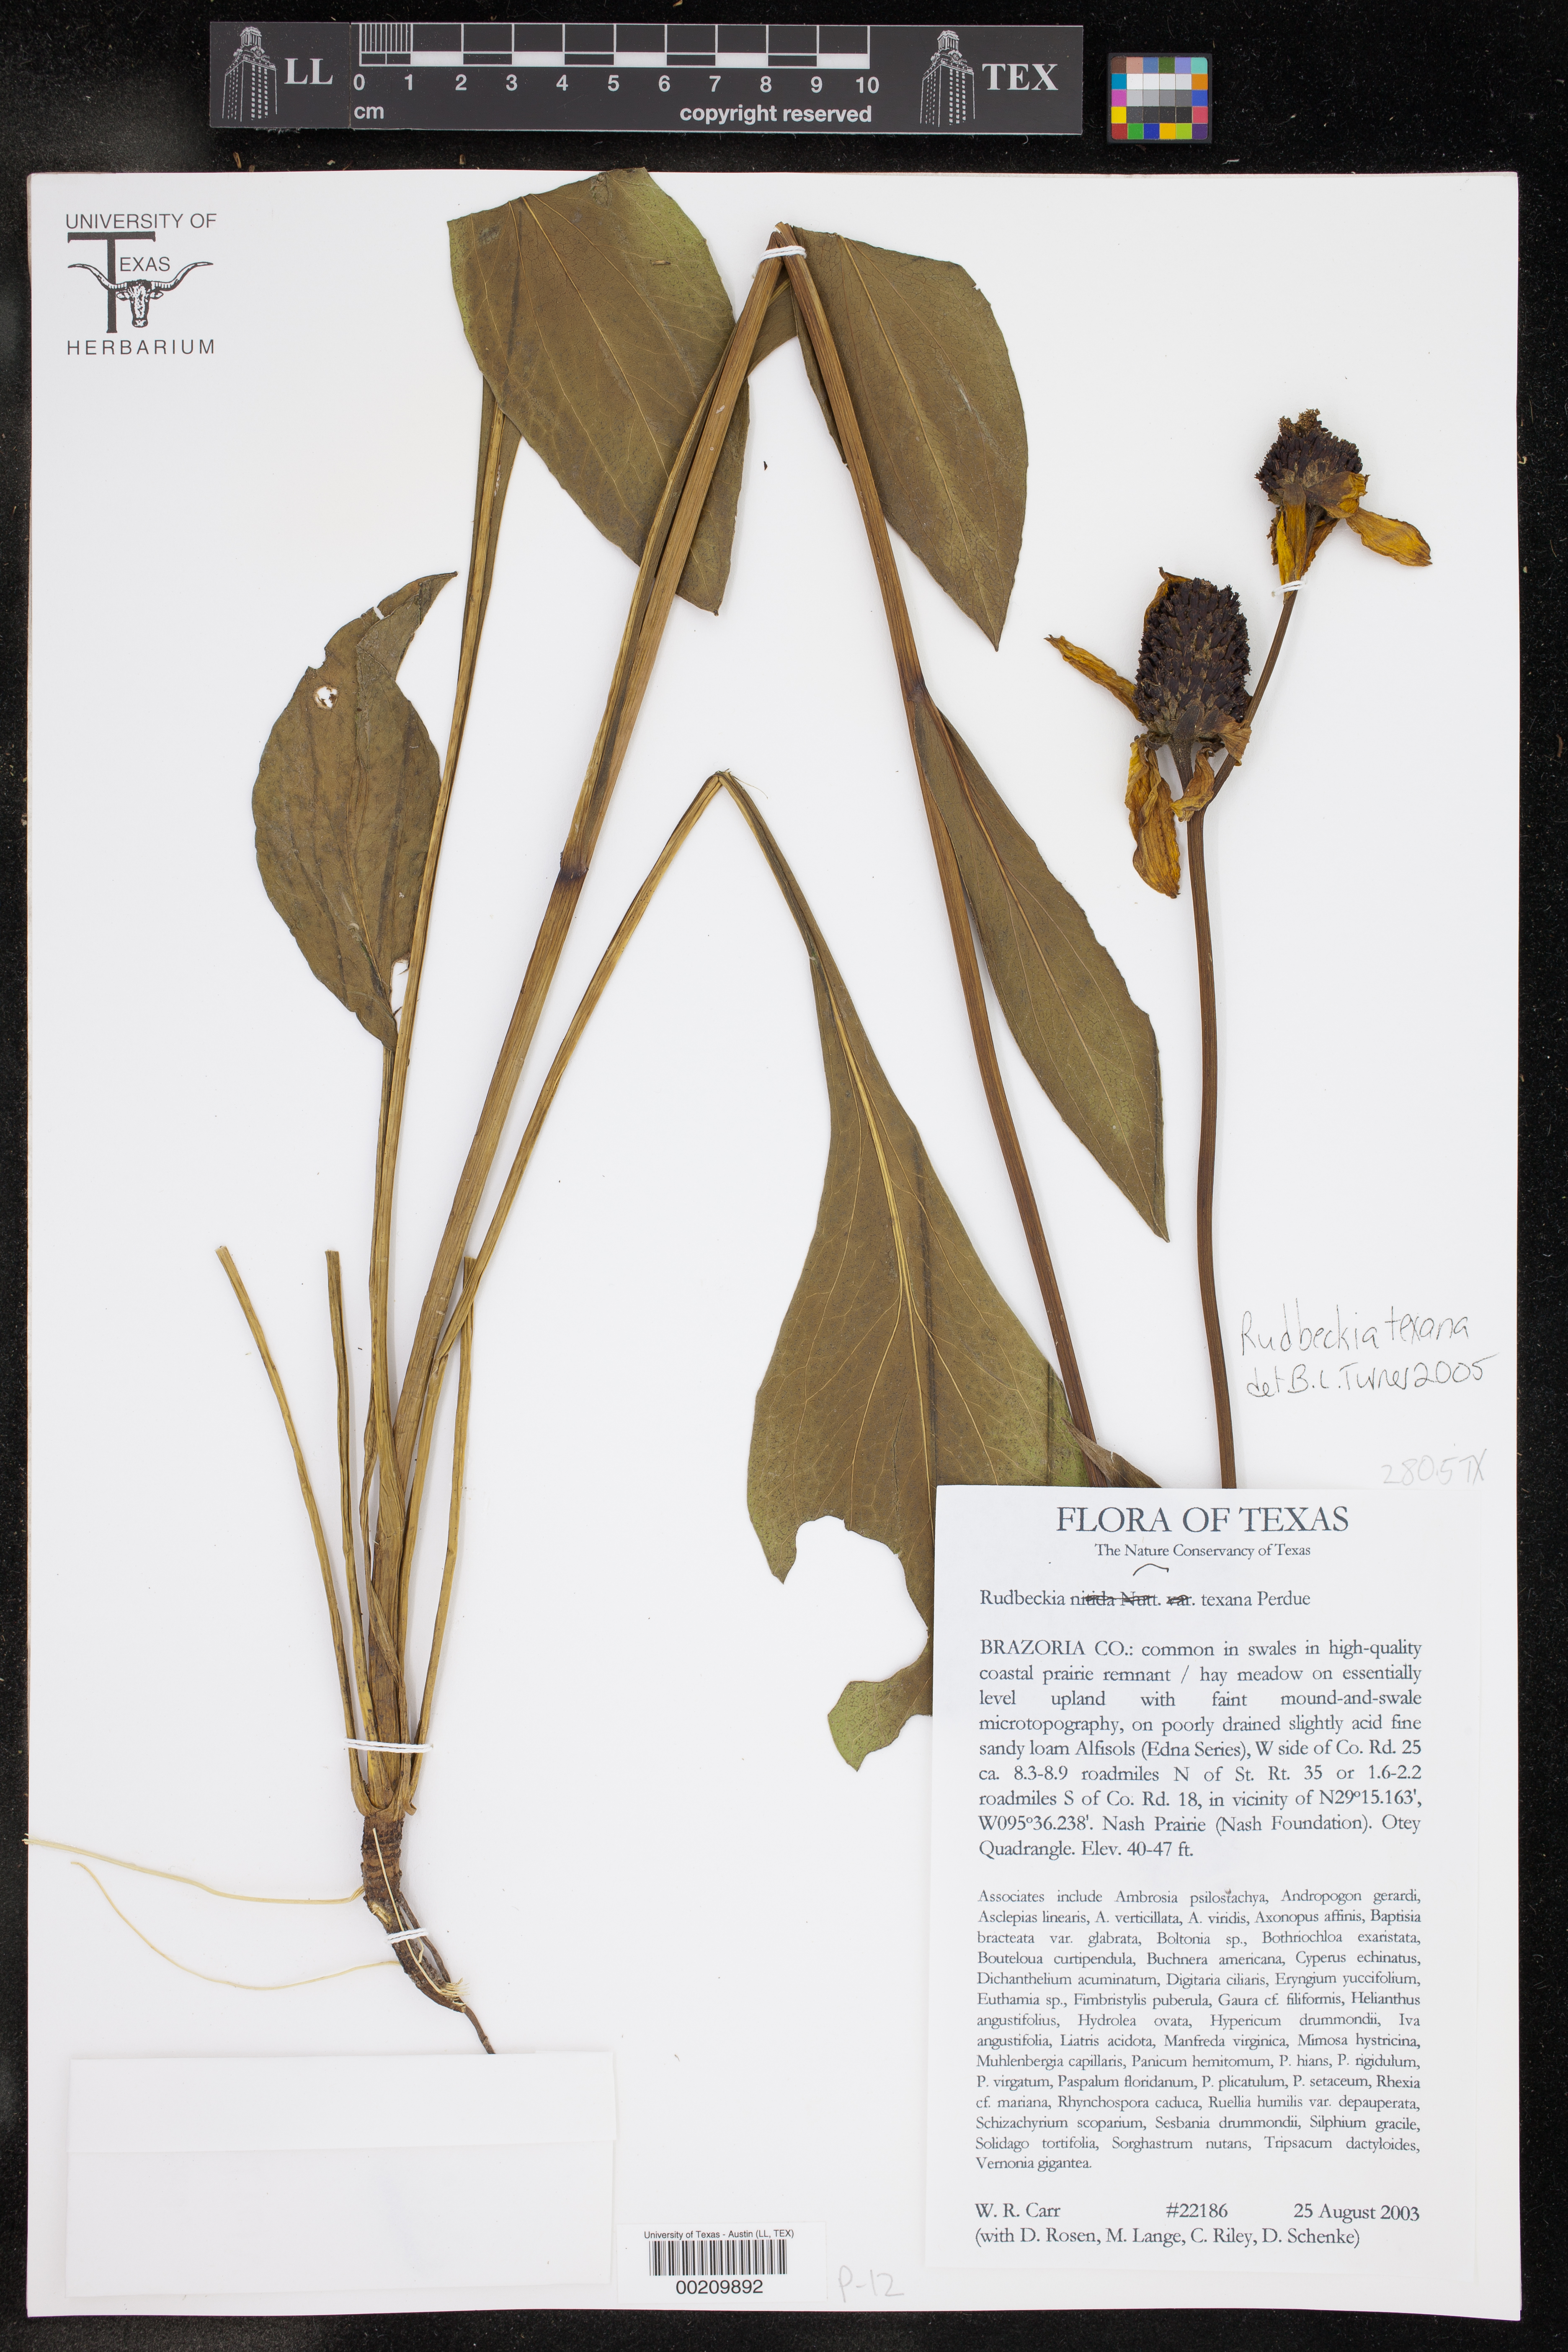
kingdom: Plantae
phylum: Tracheophyta
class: Magnoliopsida
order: Asterales
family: Asteraceae
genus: Rudbeckia
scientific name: Rudbeckia texana
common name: Texas coneflower
